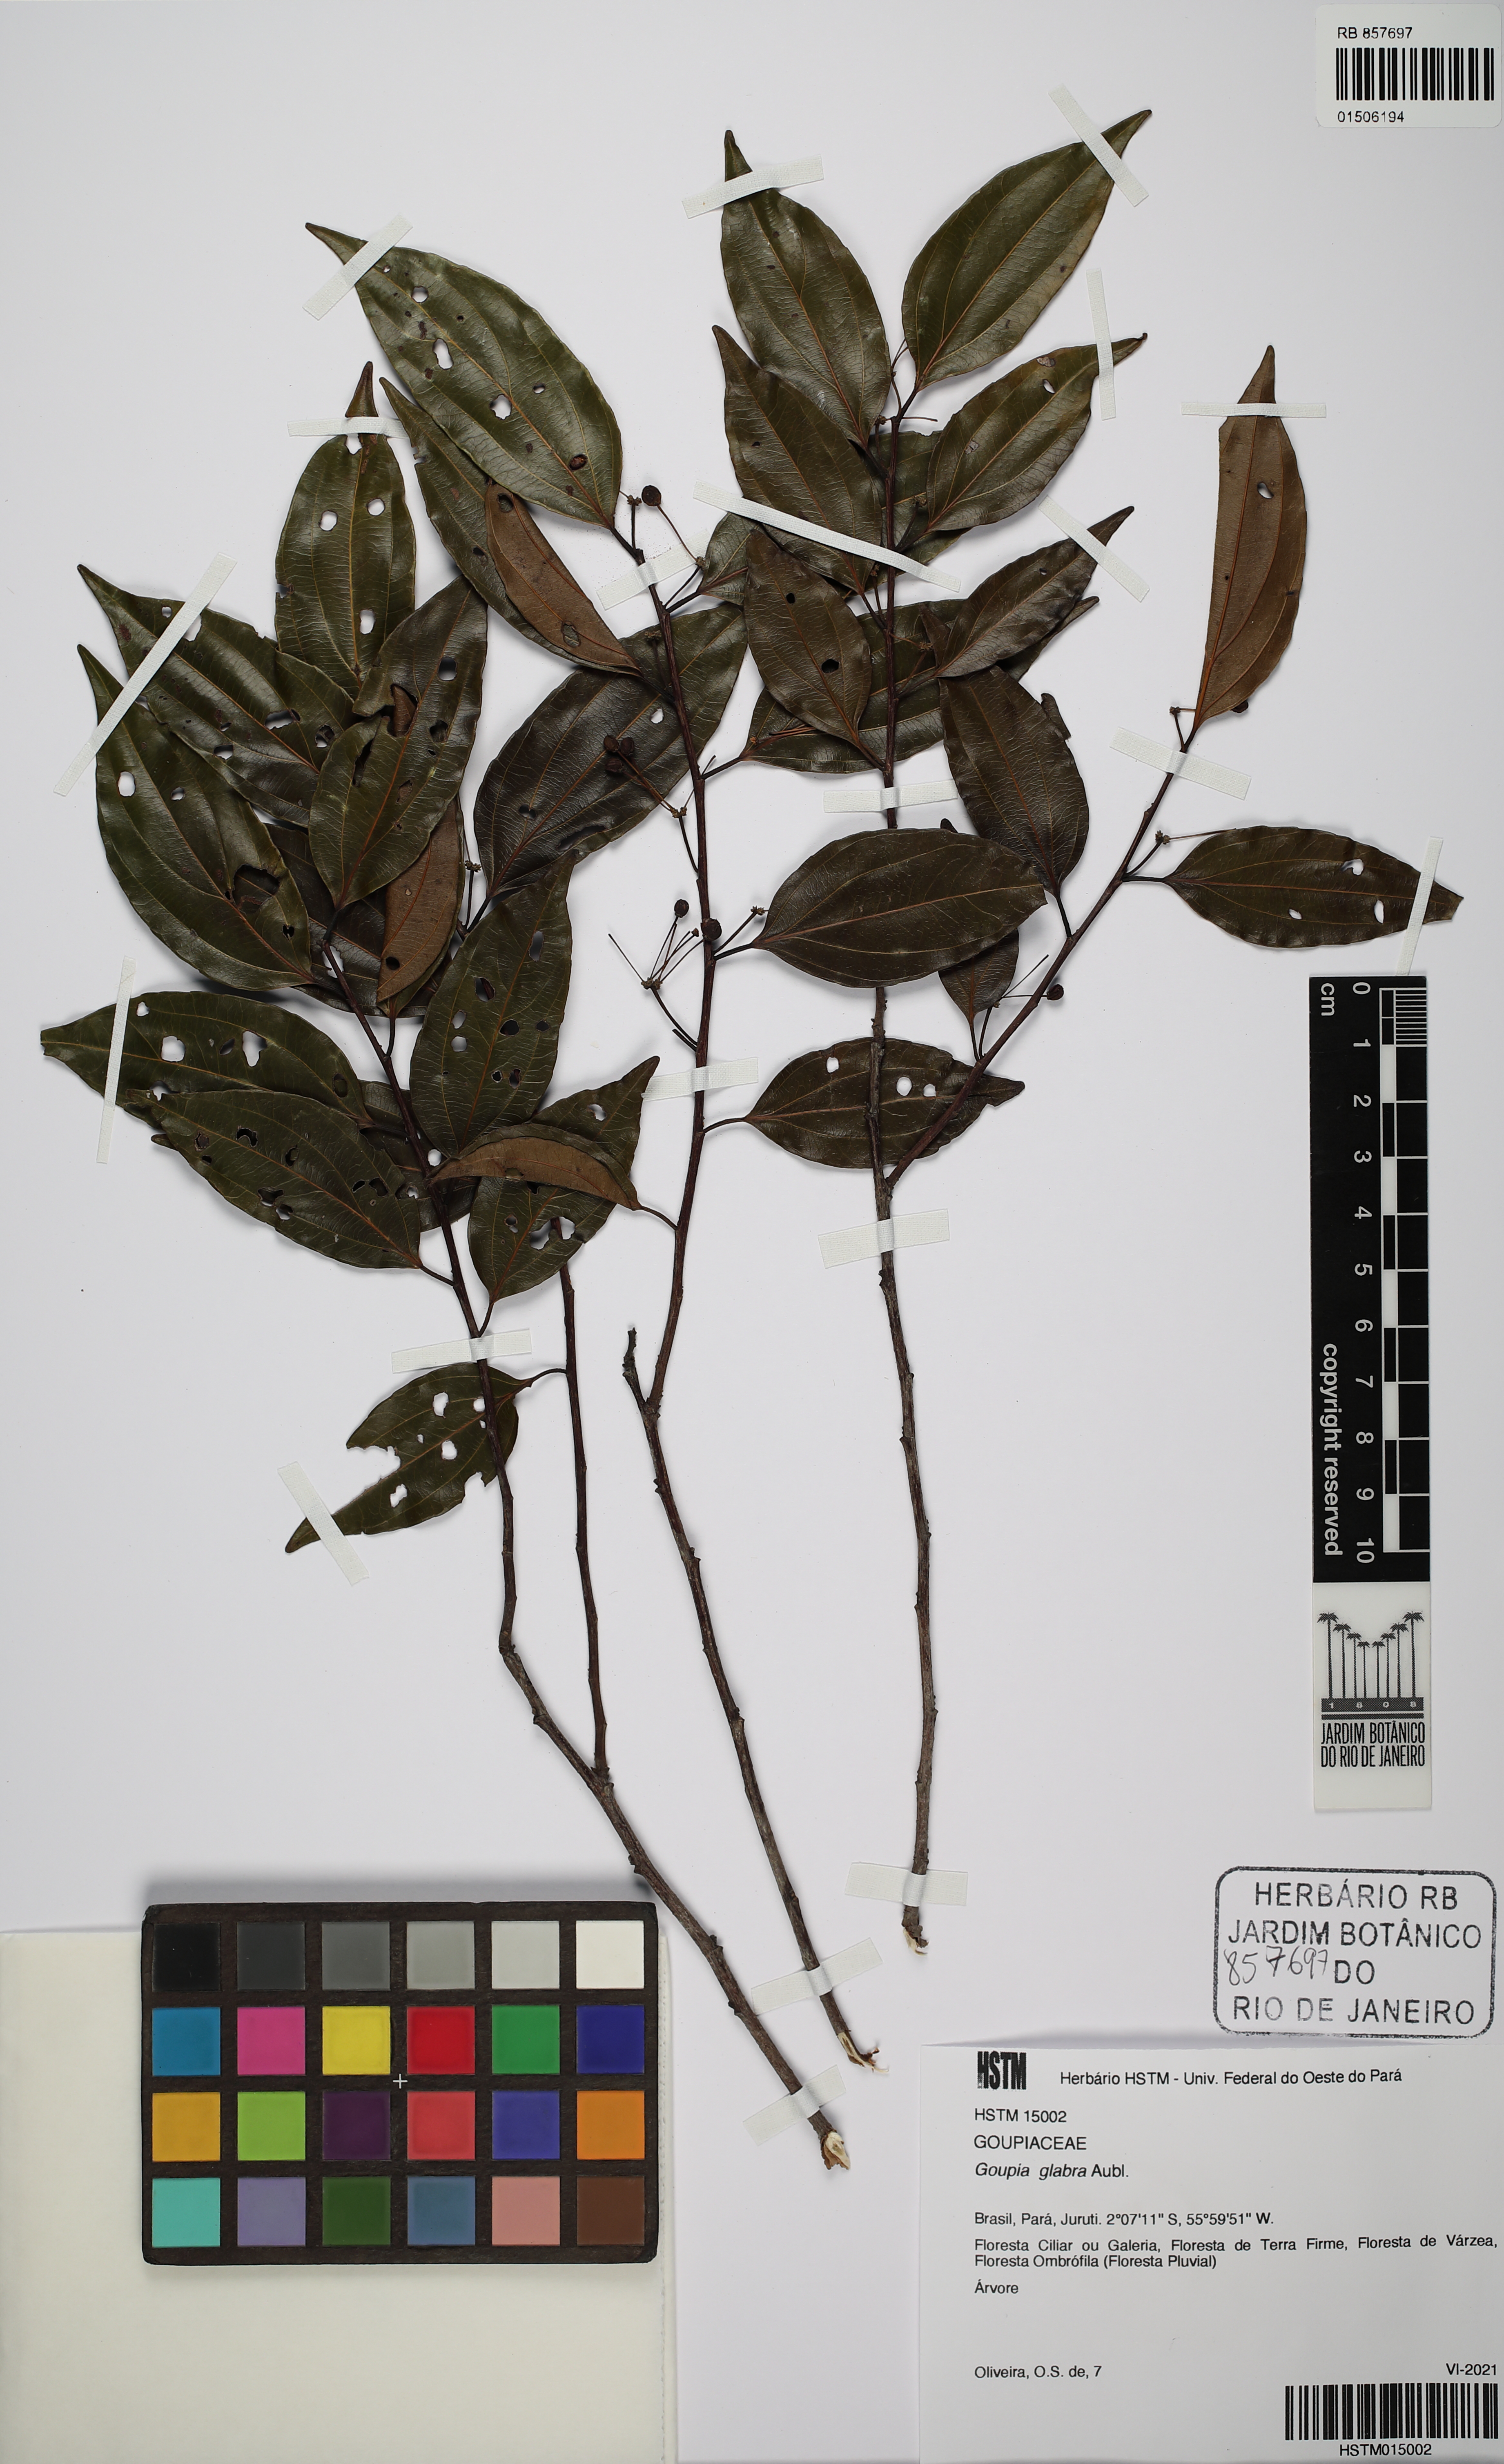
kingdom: Plantae
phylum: Tracheophyta
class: Magnoliopsida
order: Malpighiales
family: Goupiaceae
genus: Goupia
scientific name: Goupia glabra
